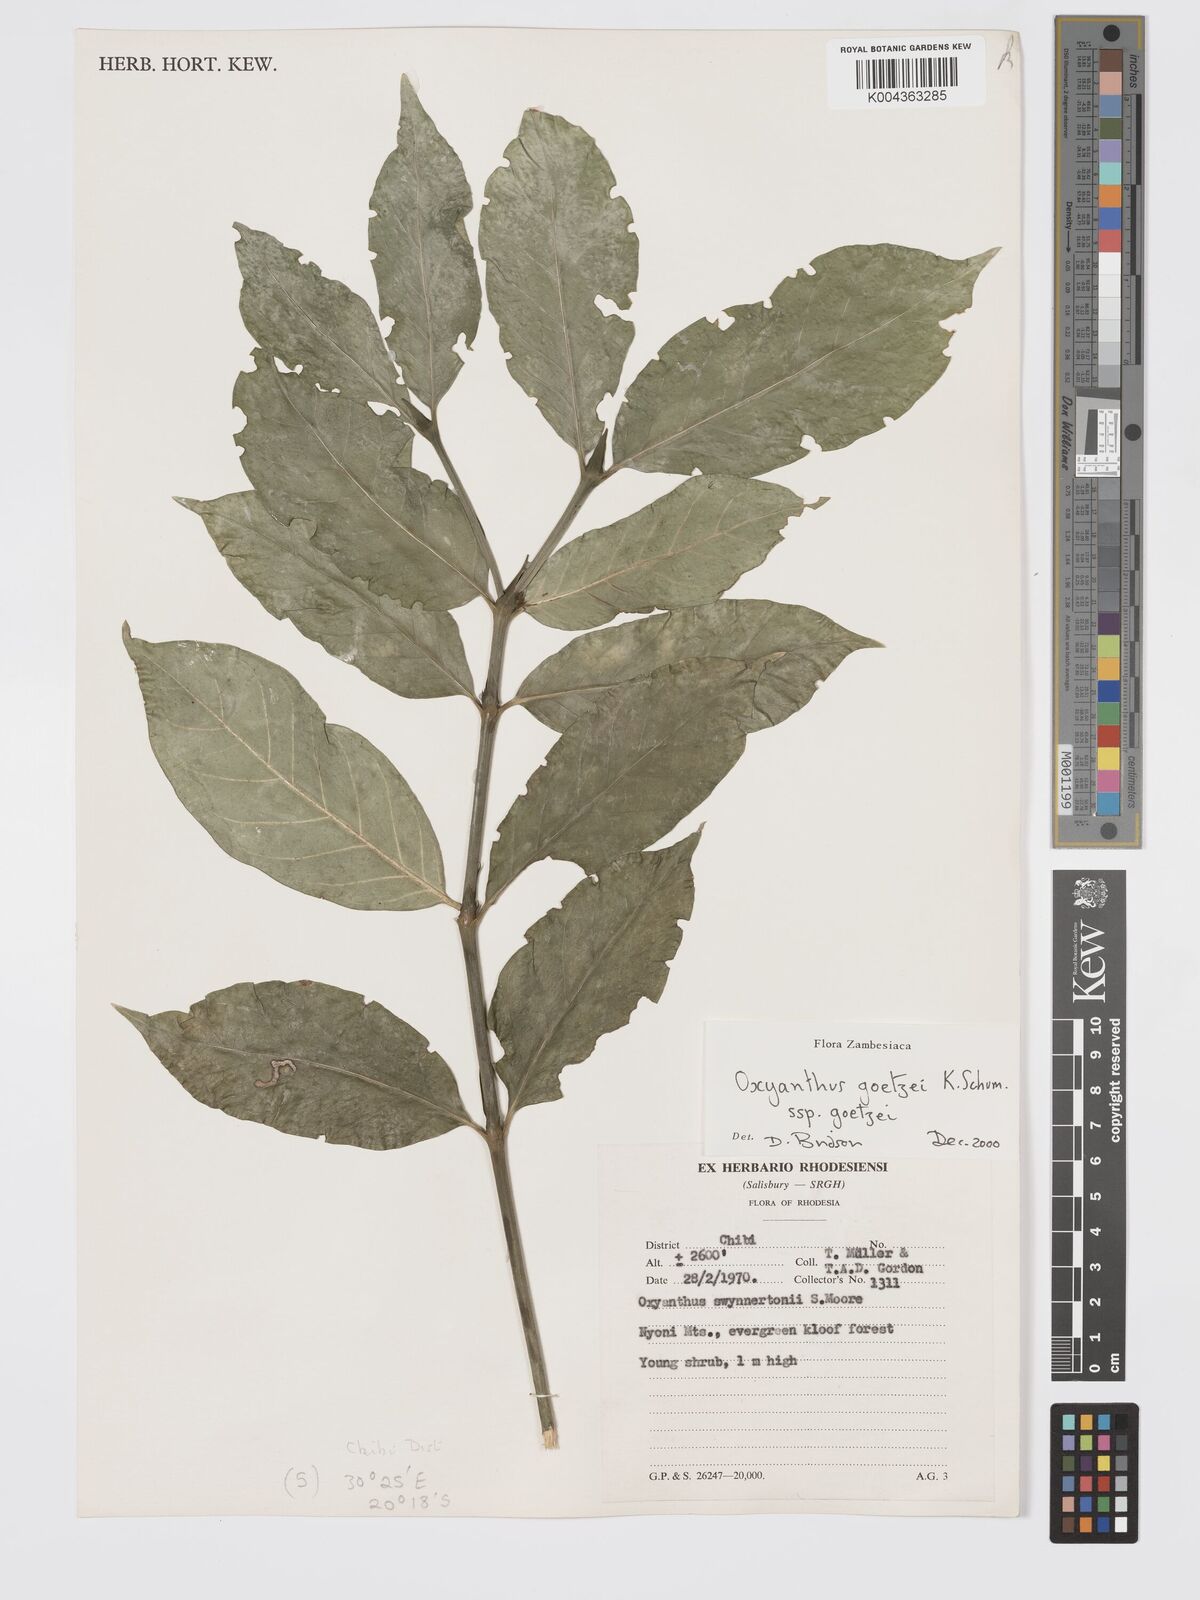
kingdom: Plantae
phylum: Tracheophyta
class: Magnoliopsida
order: Gentianales
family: Rubiaceae
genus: Oxyanthus
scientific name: Oxyanthus goetzei
